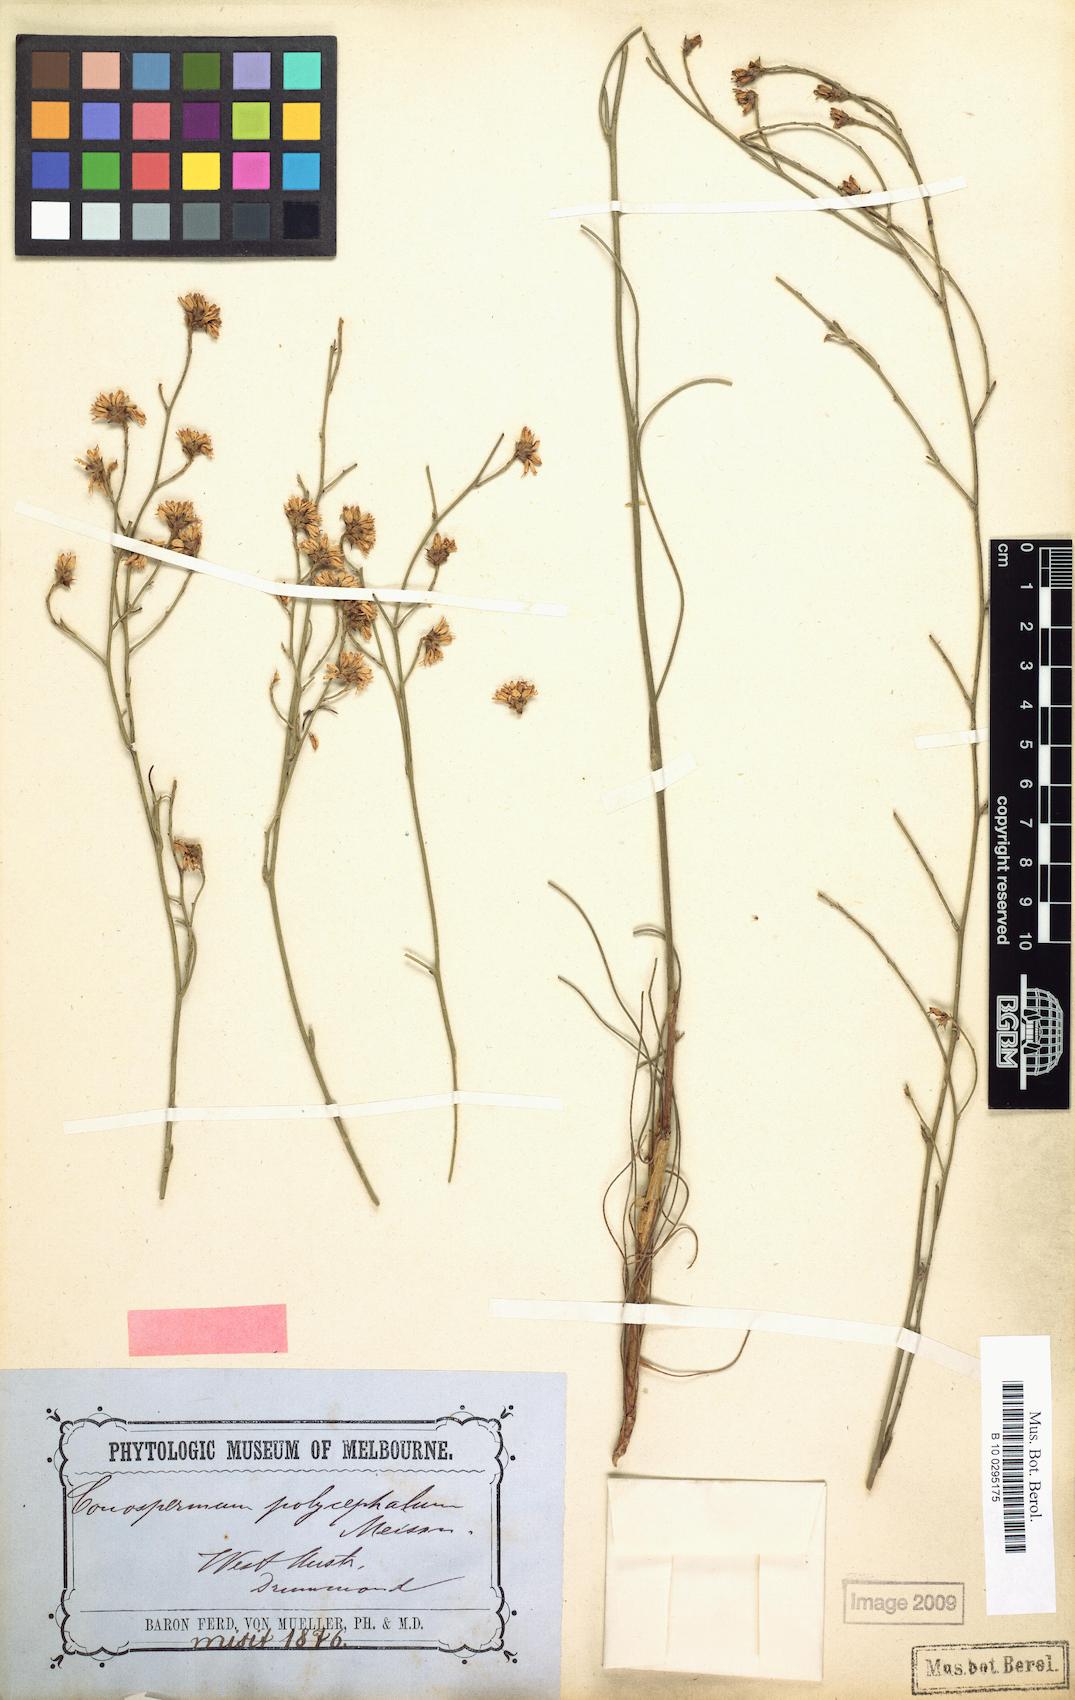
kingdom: Plantae
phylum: Tracheophyta
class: Magnoliopsida
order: Proteales
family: Proteaceae
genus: Conospermum
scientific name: Conospermum polycephalum
